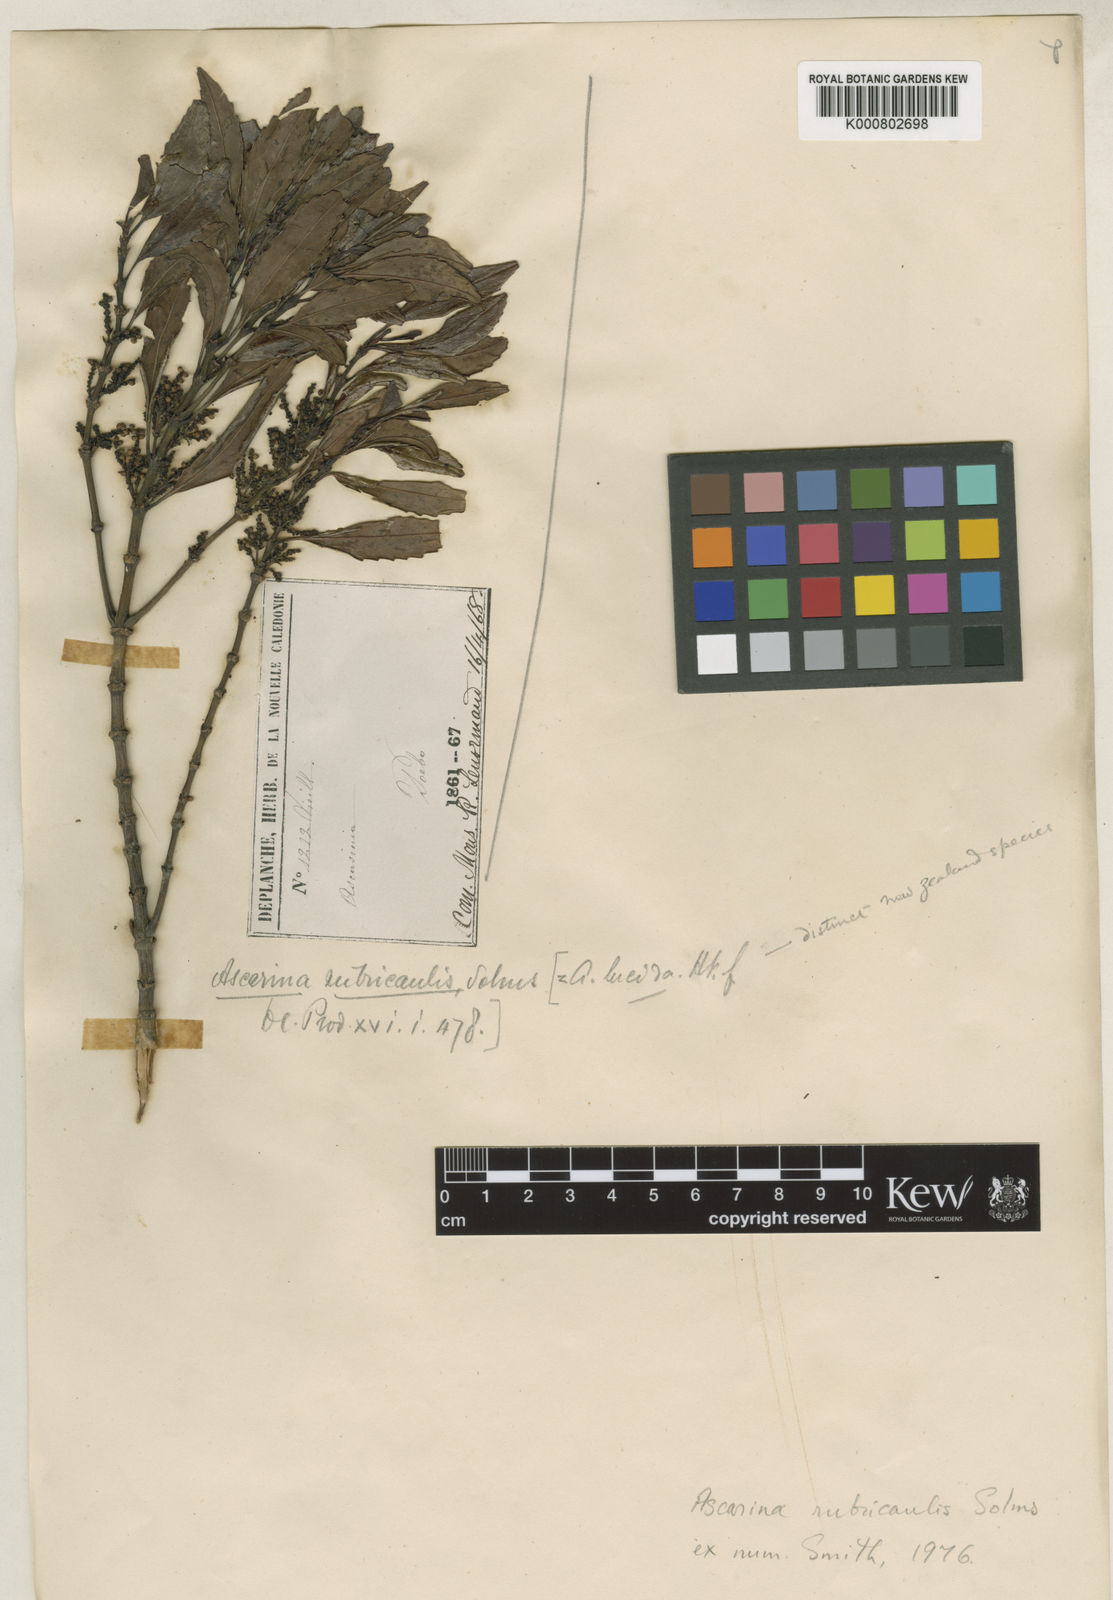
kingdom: Plantae
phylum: Tracheophyta
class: Magnoliopsida
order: Chloranthales
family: Chloranthaceae
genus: Ascarina
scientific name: Ascarina rubricaulis
